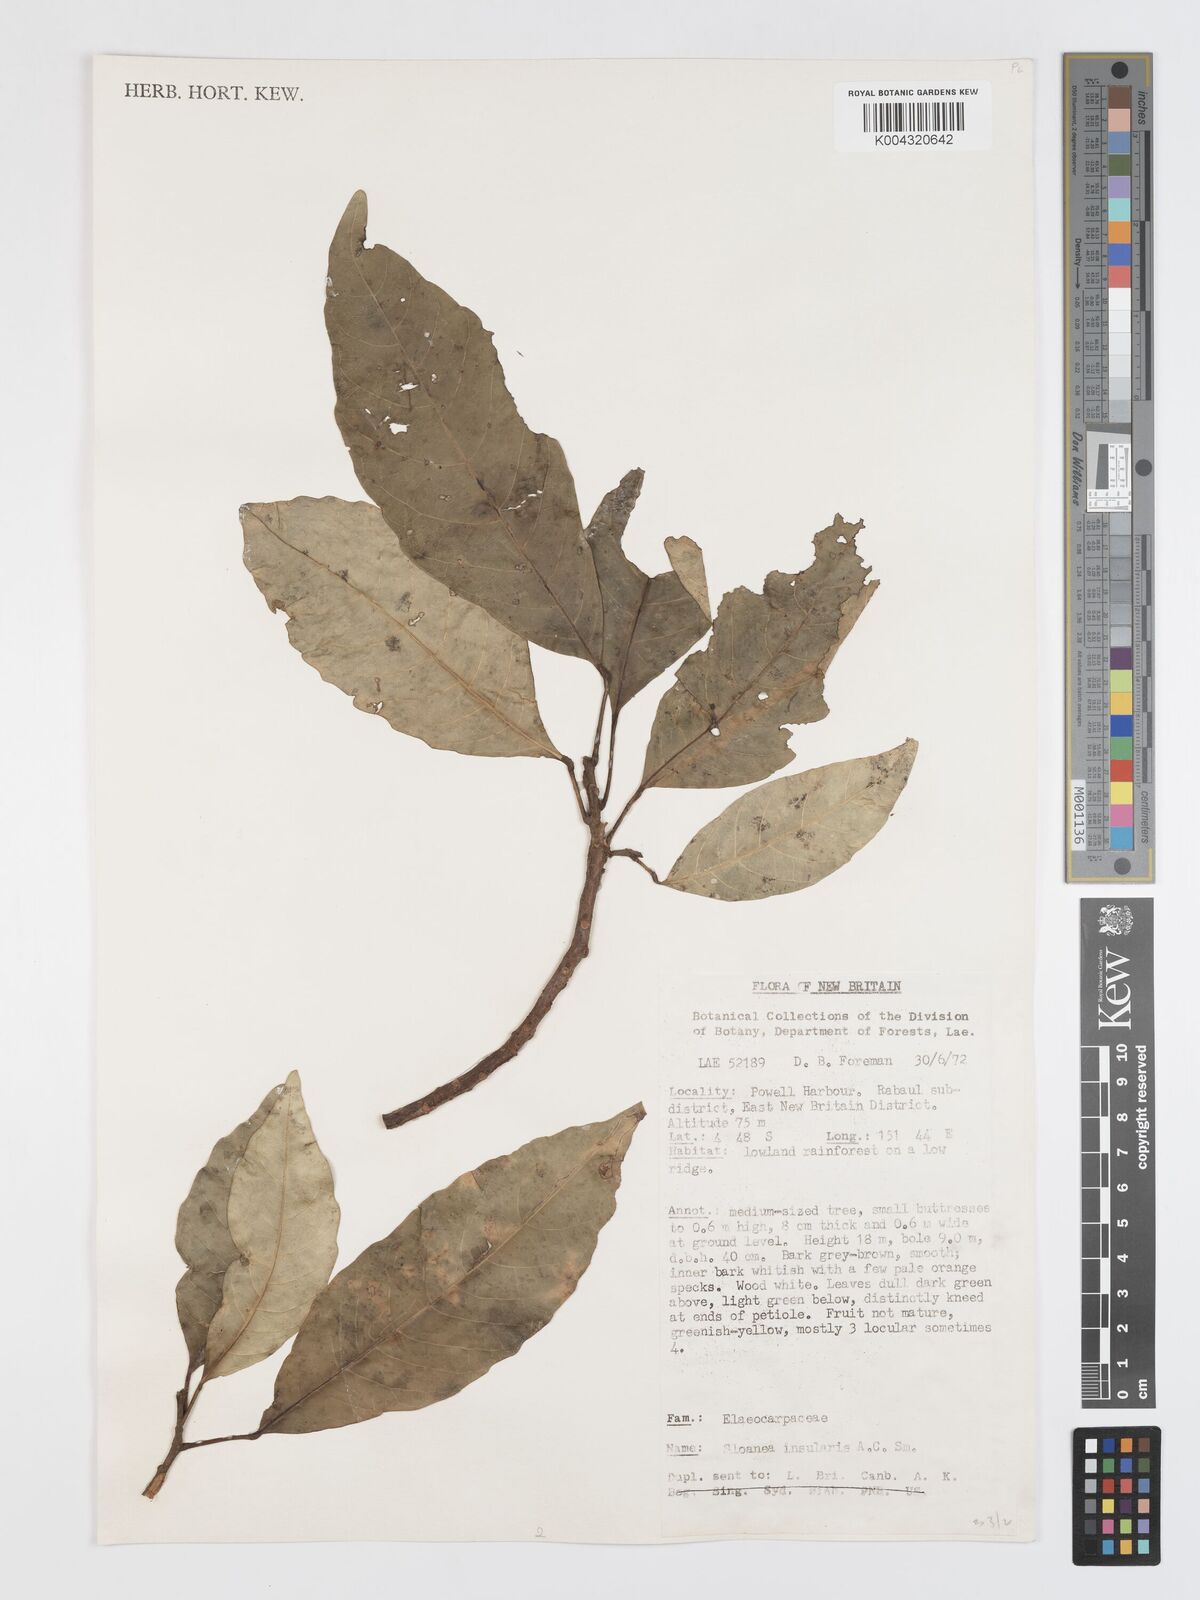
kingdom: Plantae
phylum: Tracheophyta
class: Magnoliopsida
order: Oxalidales
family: Elaeocarpaceae
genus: Sloanea
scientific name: Sloanea insularis
